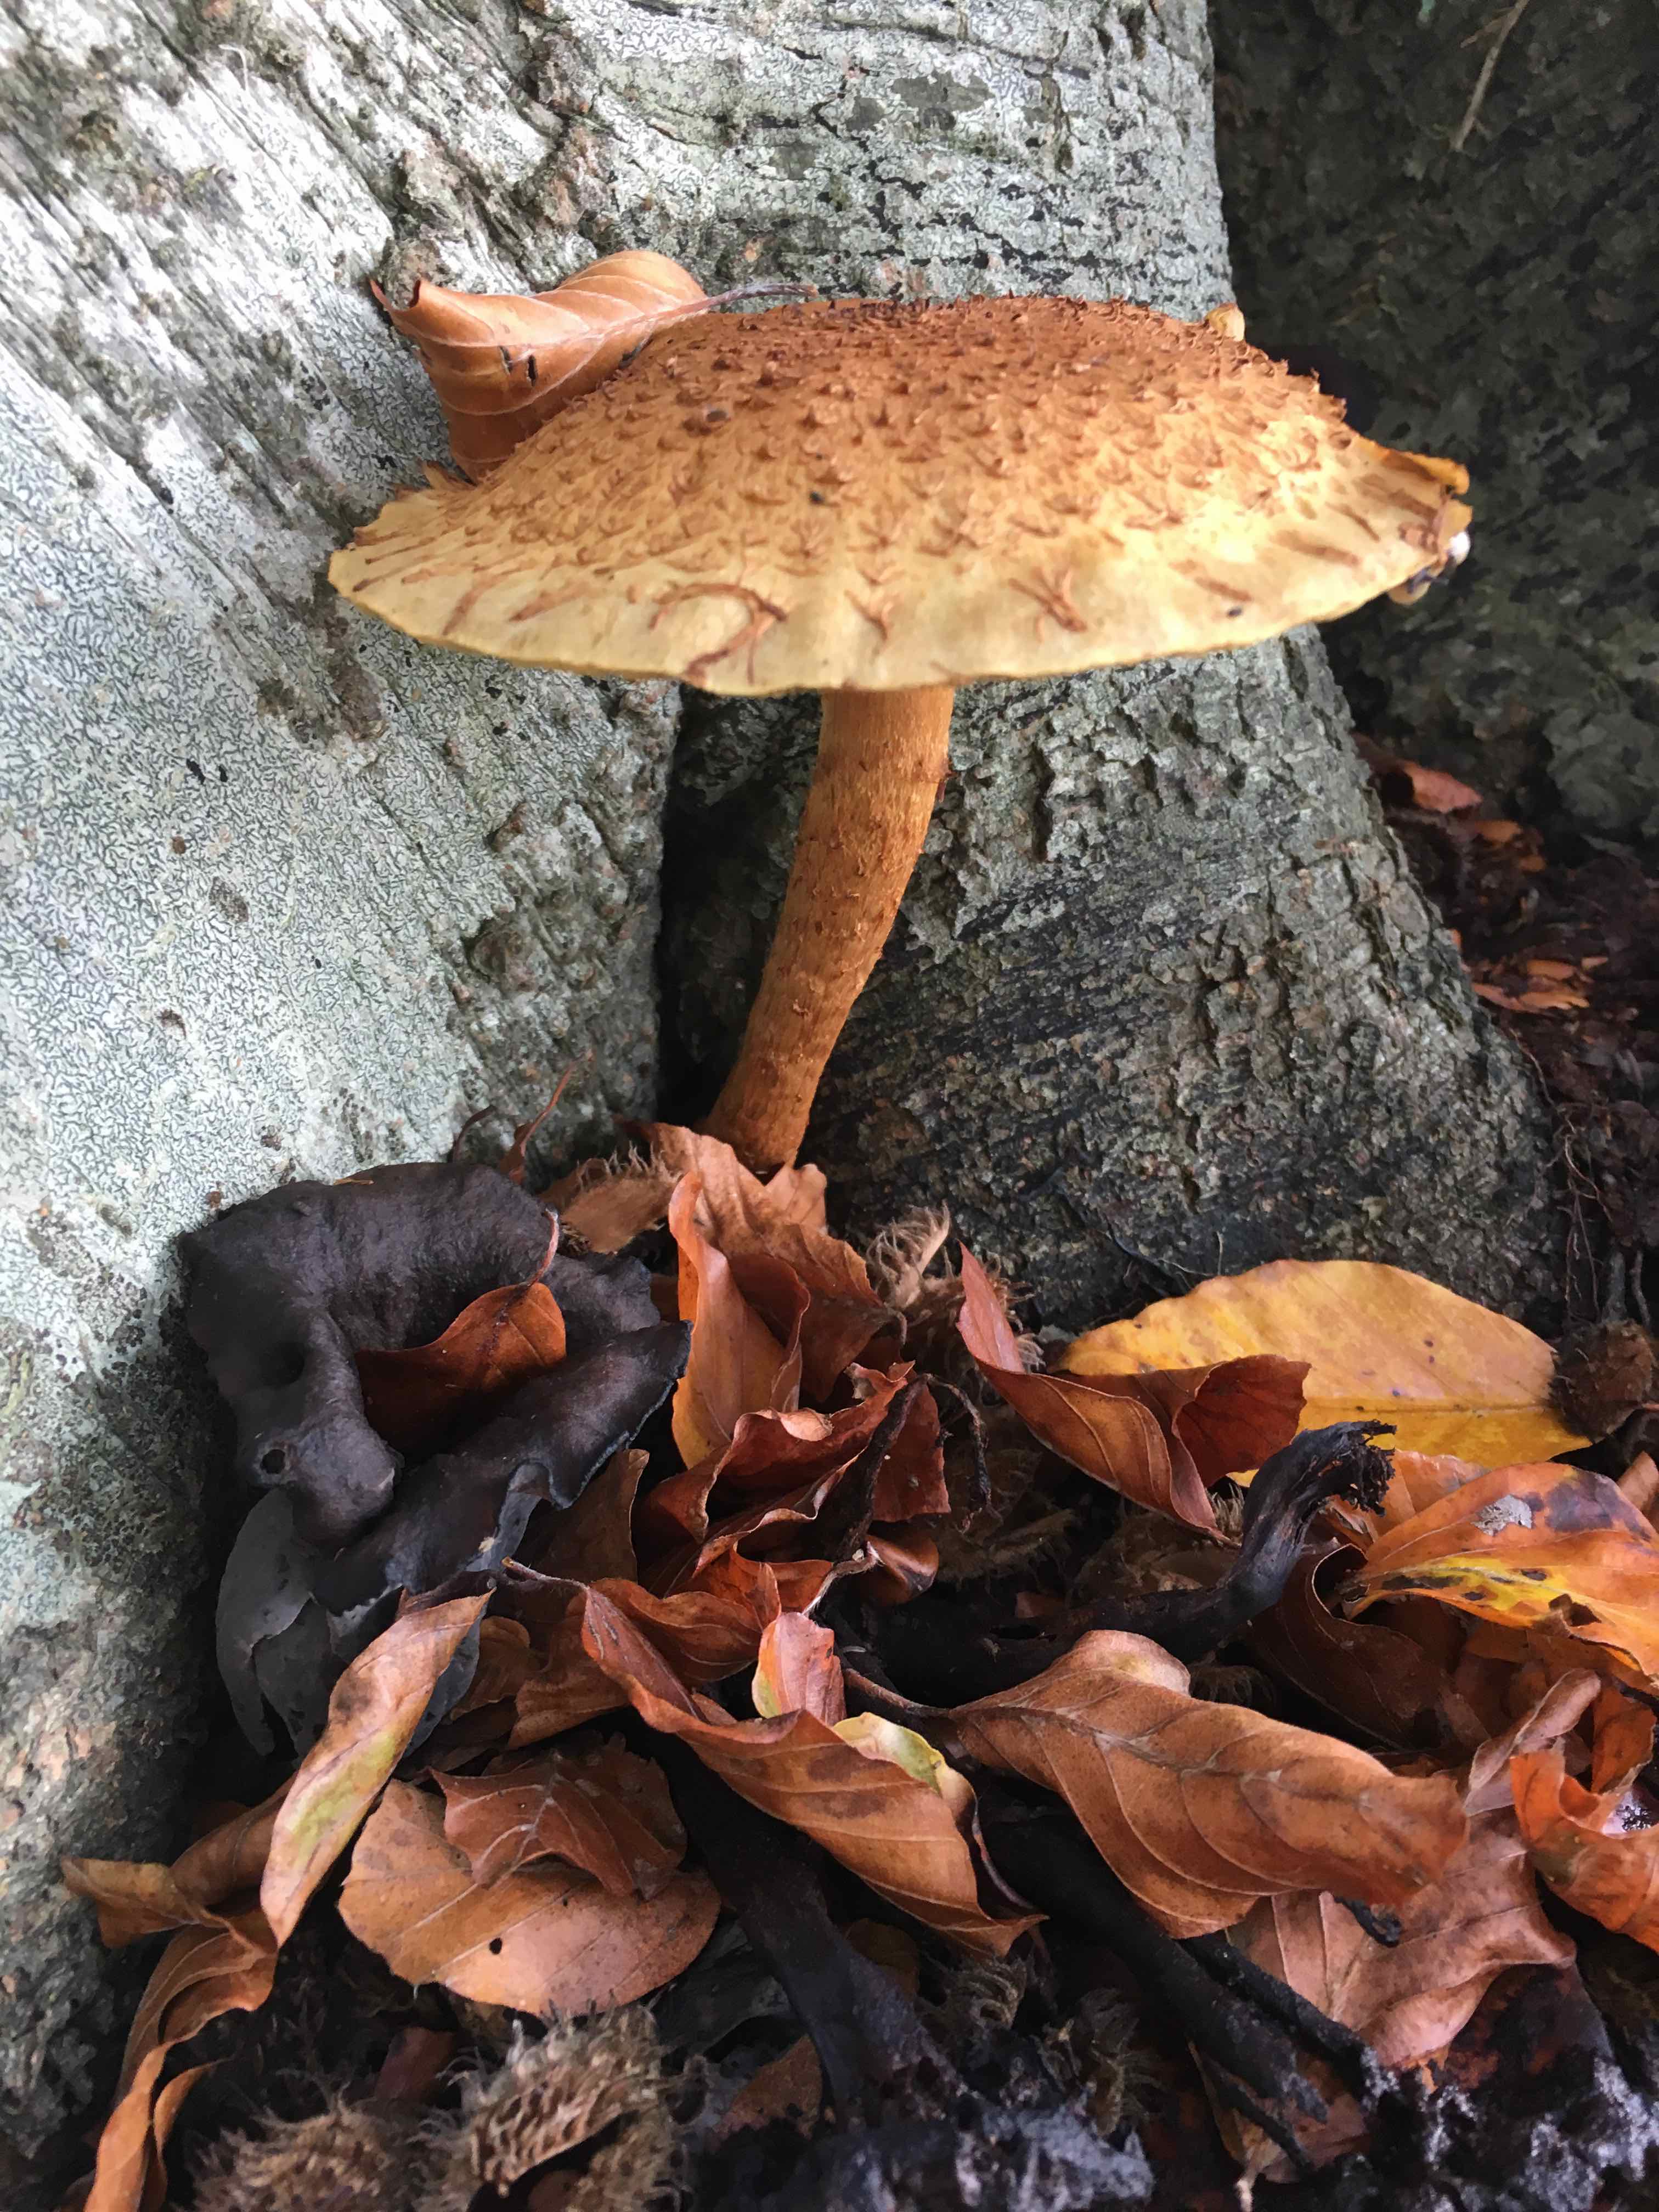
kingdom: Fungi
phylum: Basidiomycota
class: Agaricomycetes
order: Agaricales
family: Strophariaceae
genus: Pholiota
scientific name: Pholiota squarrosa
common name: krumskællet skælhat
